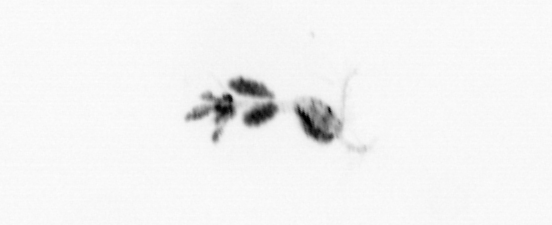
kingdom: Animalia
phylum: Arthropoda
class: Copepoda
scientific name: Copepoda
